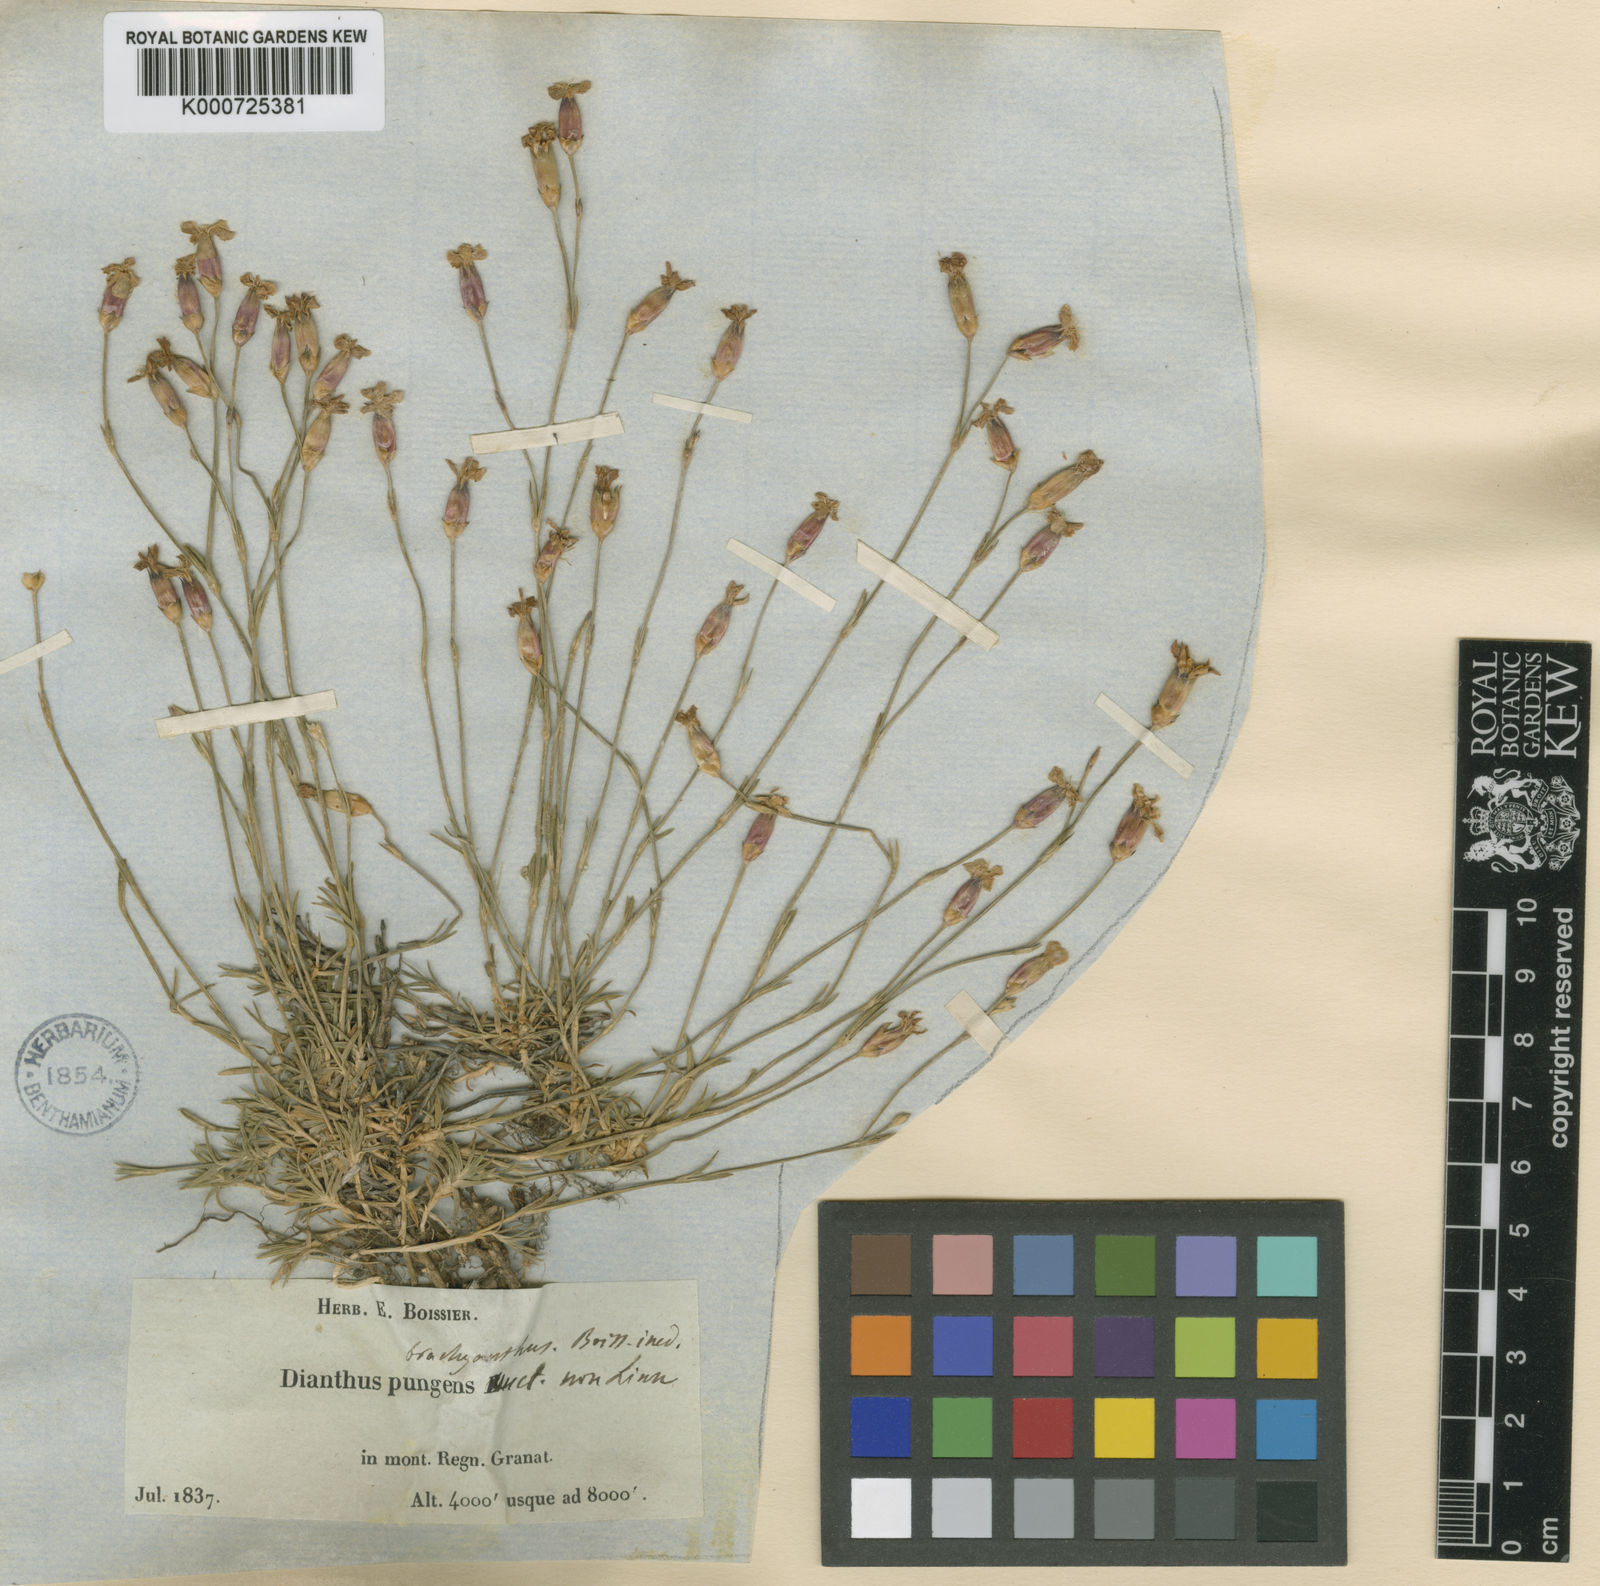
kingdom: Plantae
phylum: Tracheophyta
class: Magnoliopsida
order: Caryophyllales
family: Caryophyllaceae
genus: Dianthus
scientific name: Dianthus pungens
